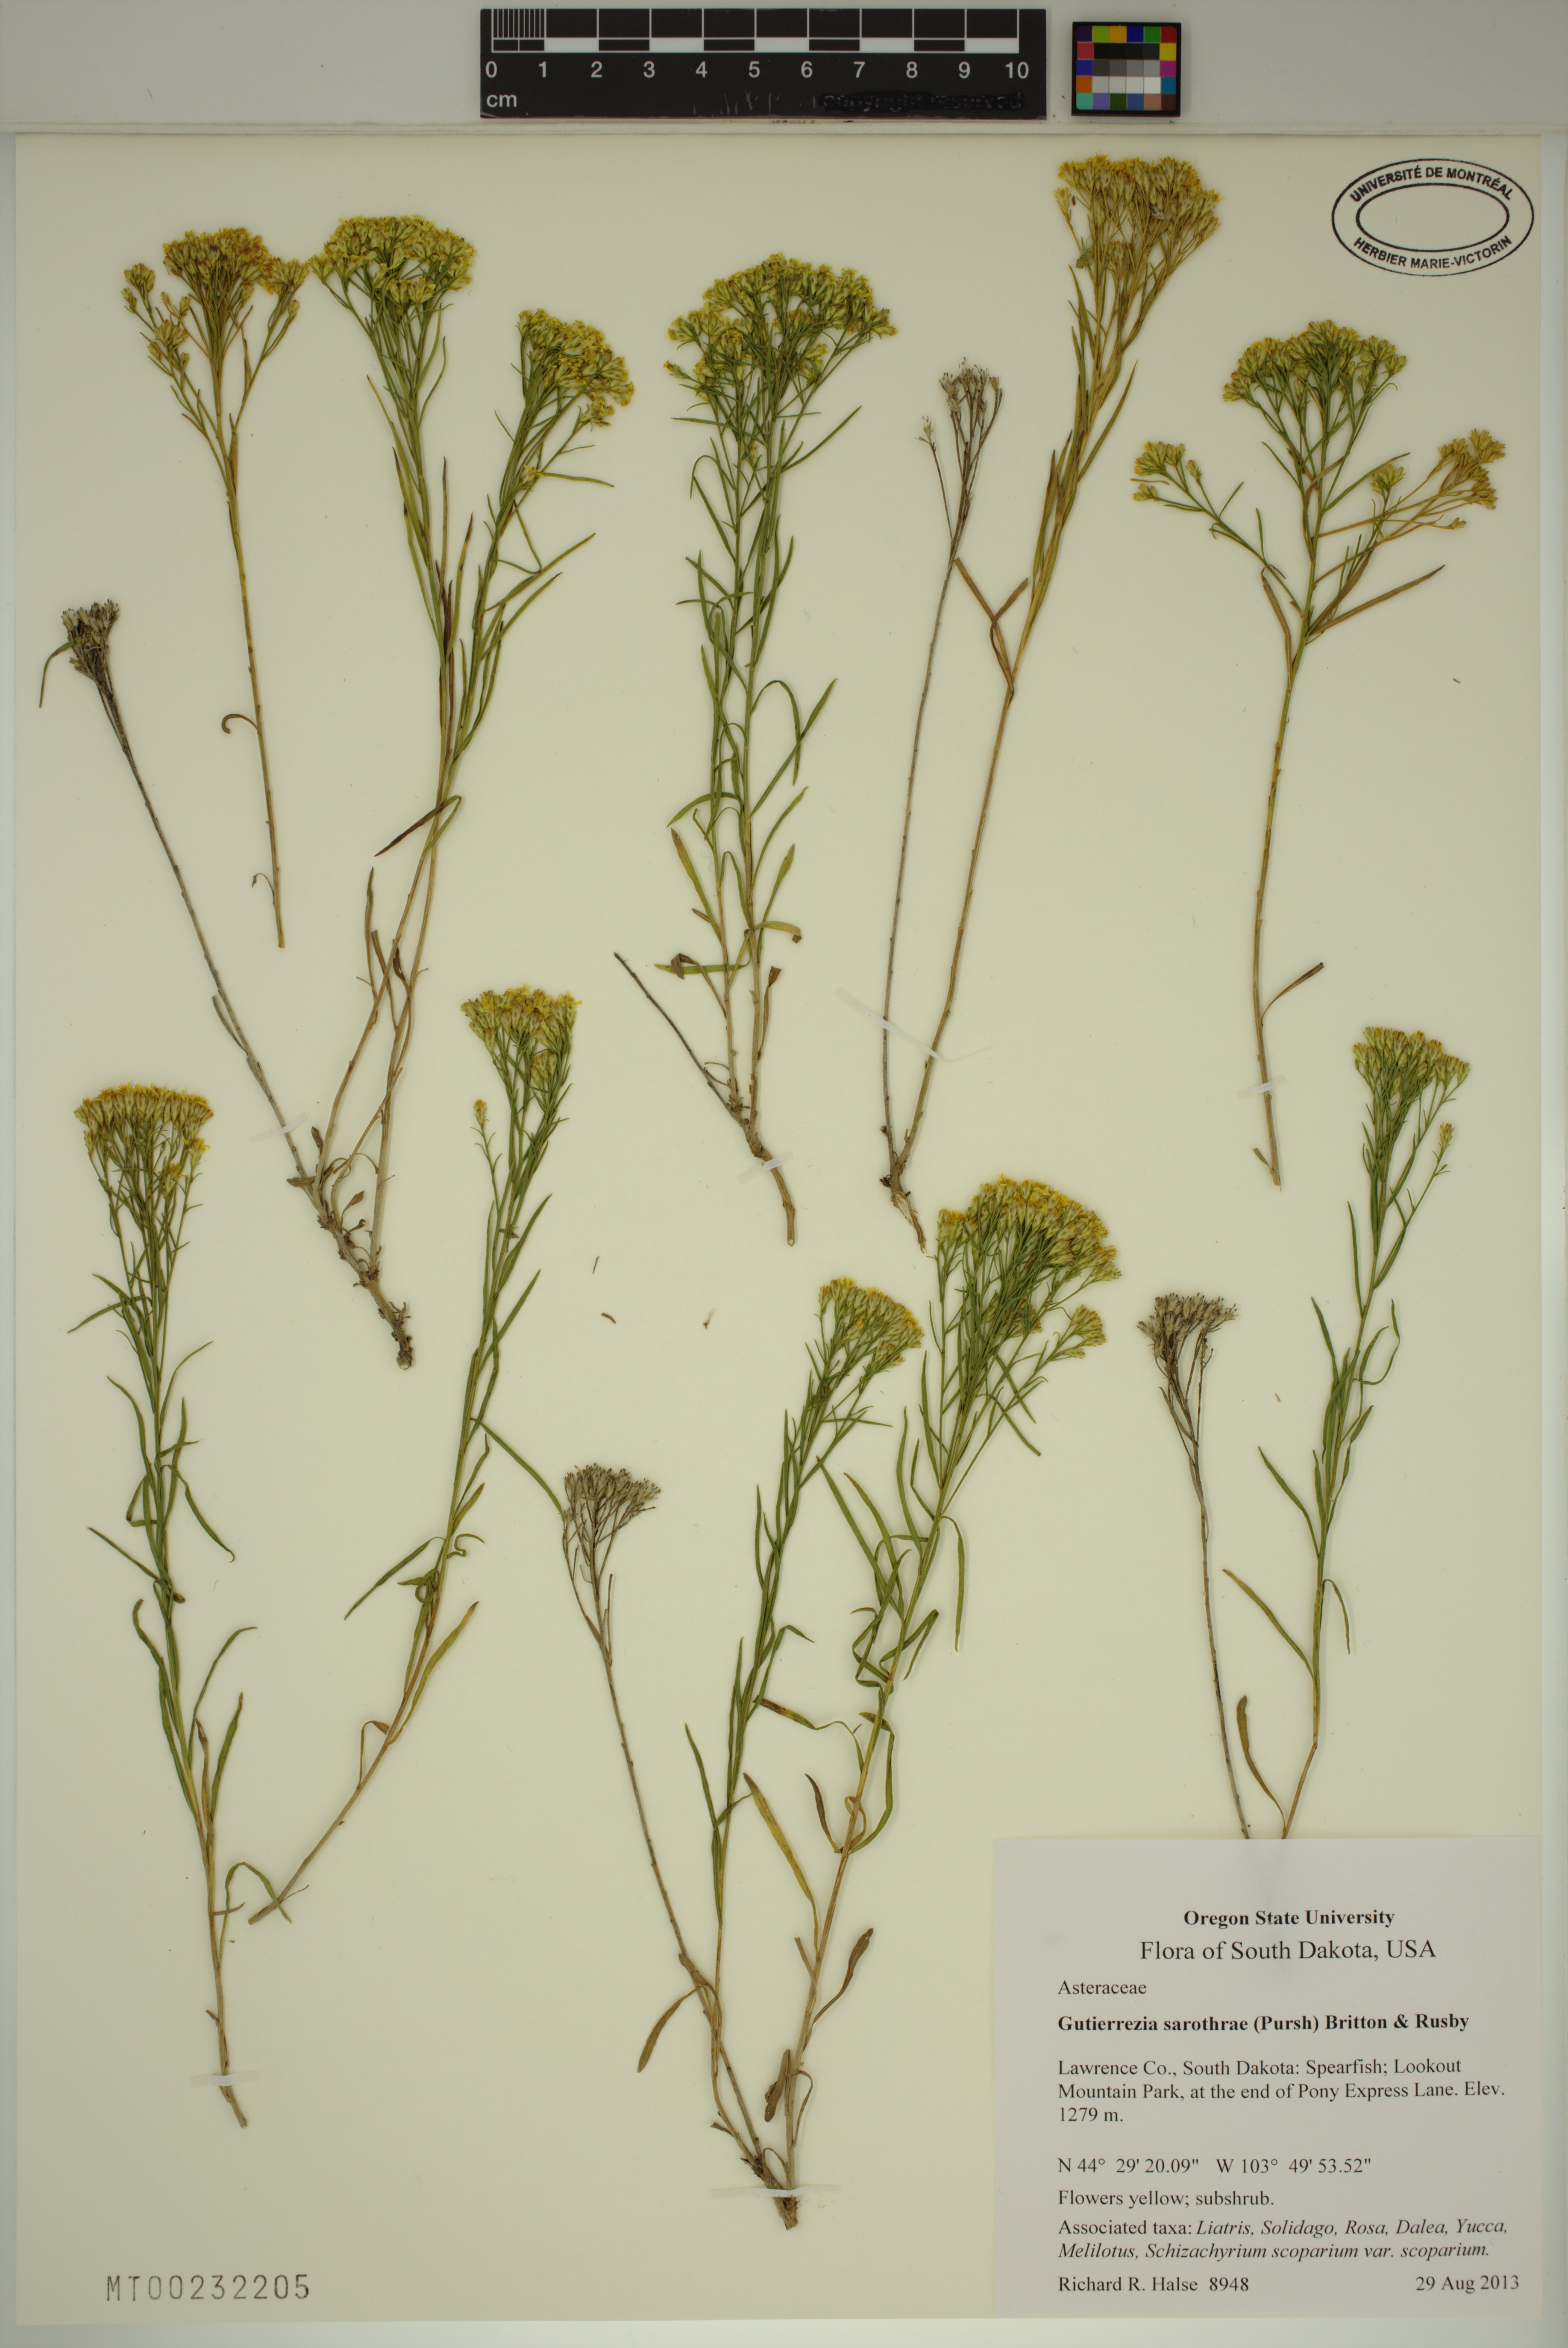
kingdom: Plantae
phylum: Tracheophyta
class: Magnoliopsida
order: Asterales
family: Asteraceae
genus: Gutierrezia
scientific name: Gutierrezia sarothrae
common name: Broom snakeweed
